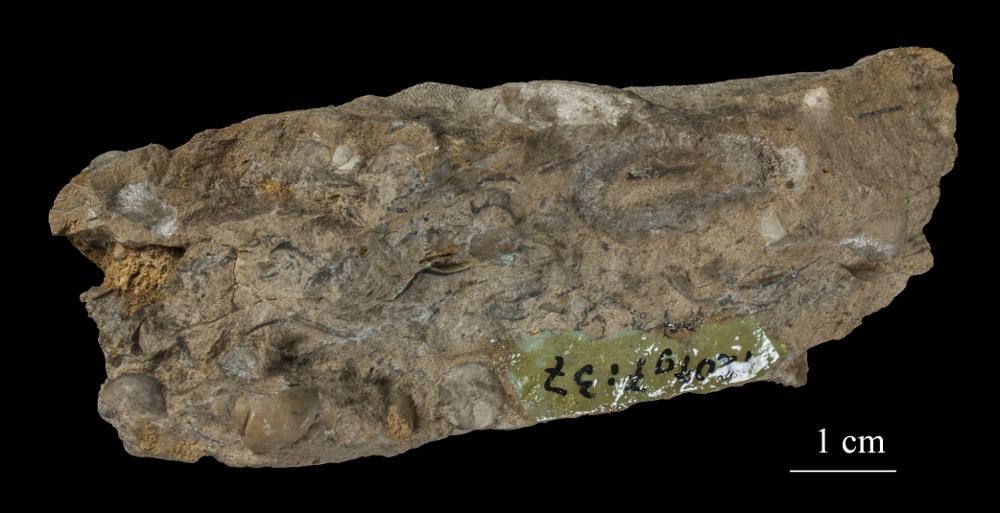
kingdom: Animalia
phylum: Bryozoa
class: Stenolaemata
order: Trepostomatida
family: Dittoporidae
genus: Hemiphragma
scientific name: Hemiphragma panderi
